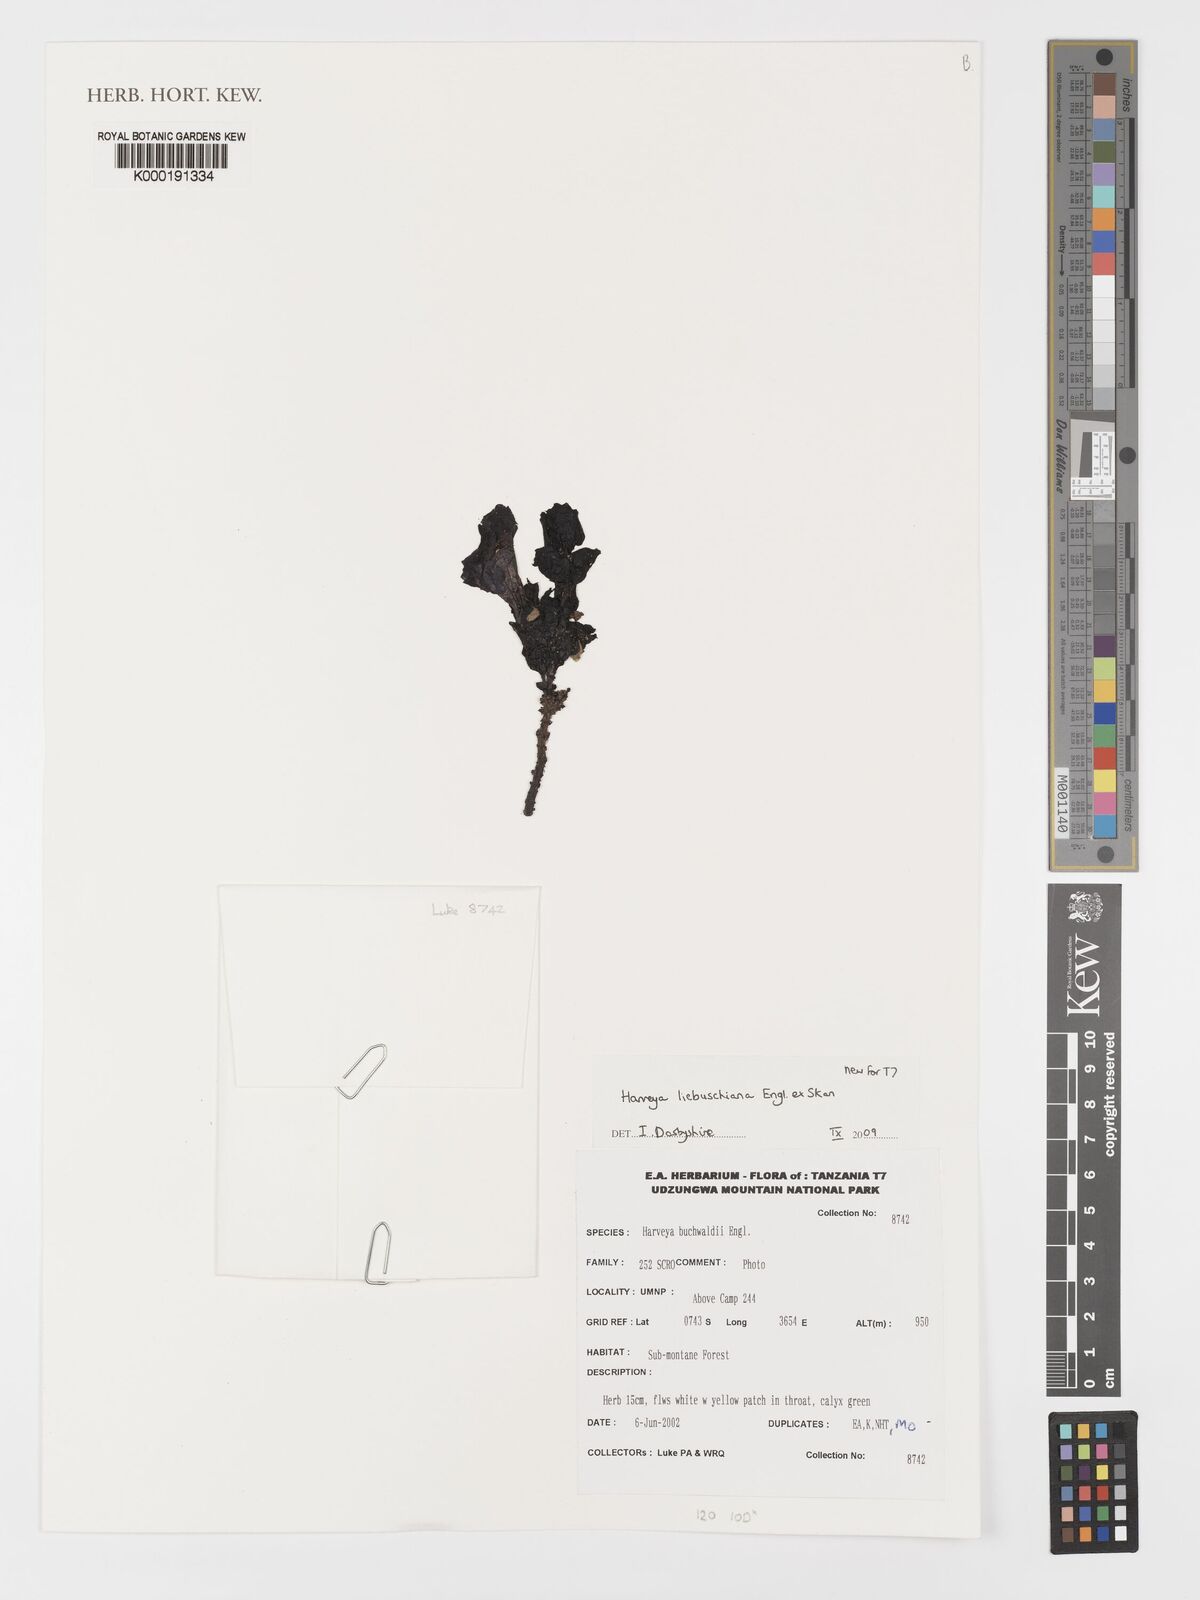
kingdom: Plantae
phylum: Tracheophyta
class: Magnoliopsida
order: Lamiales
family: Orobanchaceae
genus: Harveya
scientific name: Harveya liebuschiana
